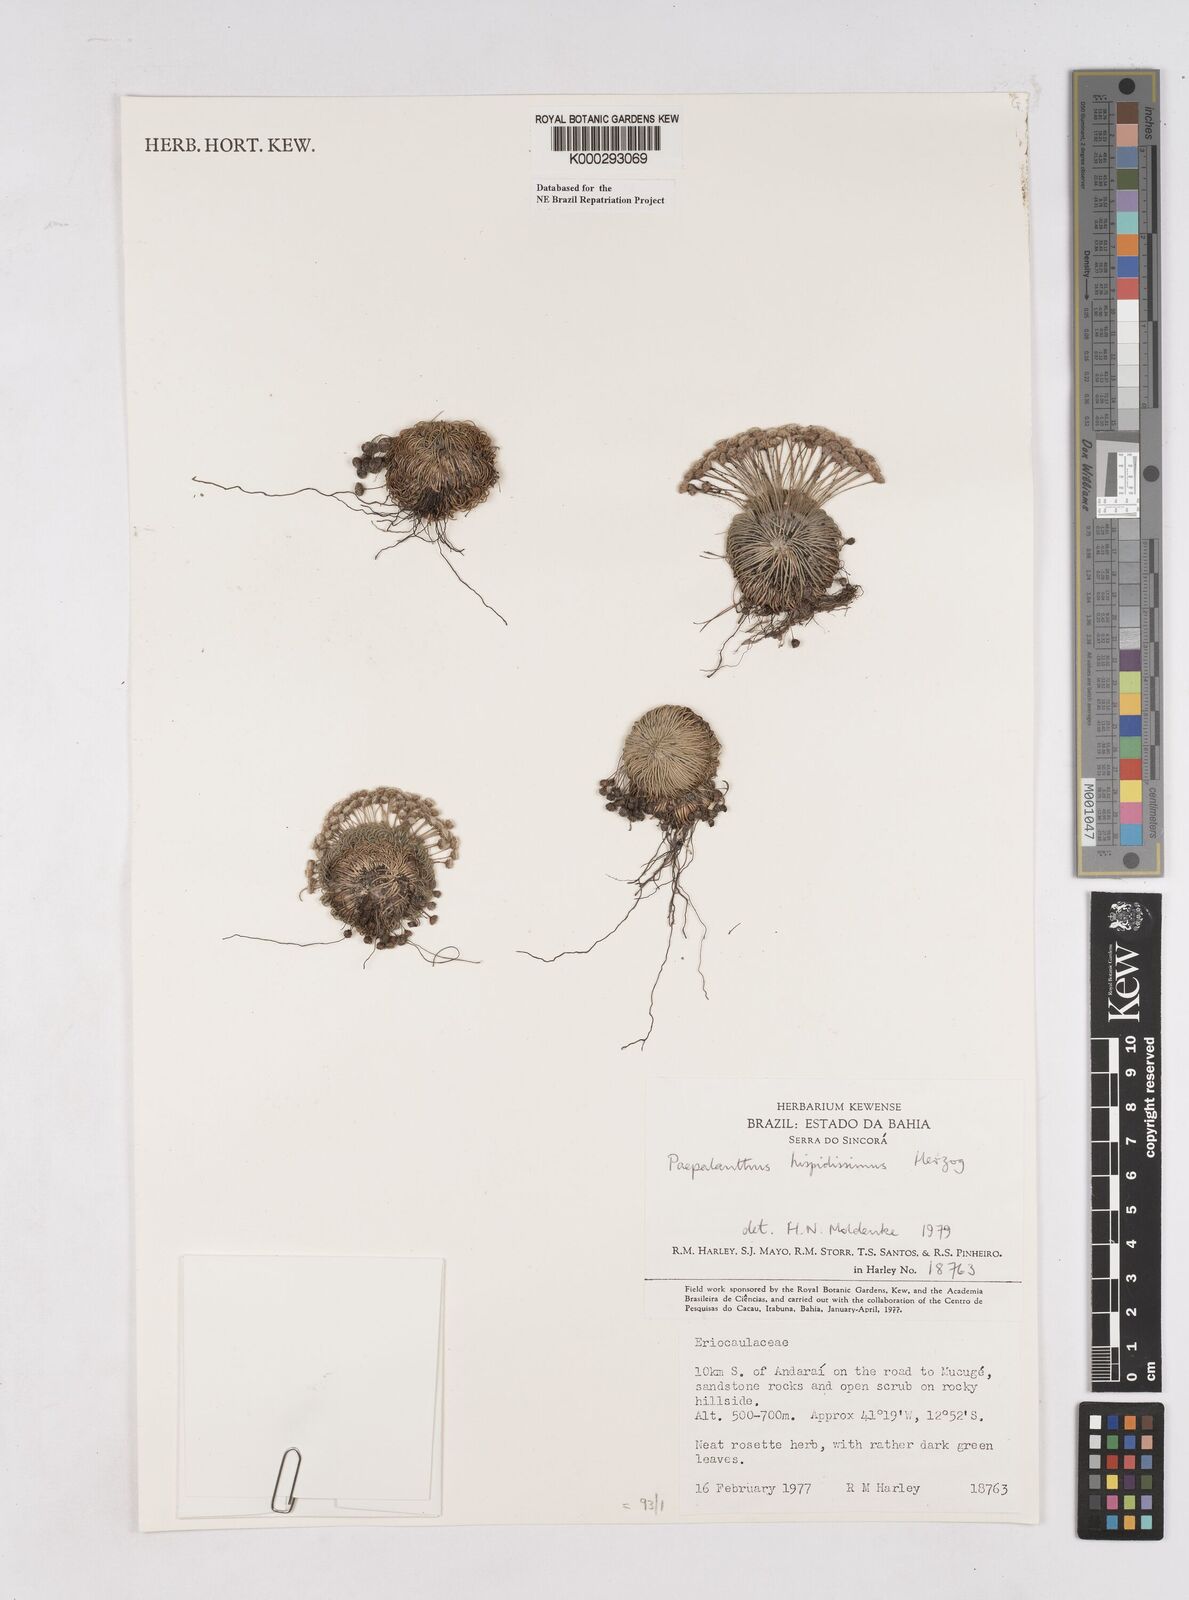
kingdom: Plantae
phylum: Tracheophyta
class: Liliopsida
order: Poales
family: Eriocaulaceae
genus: Paepalanthus
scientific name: Paepalanthus pulvinatus
